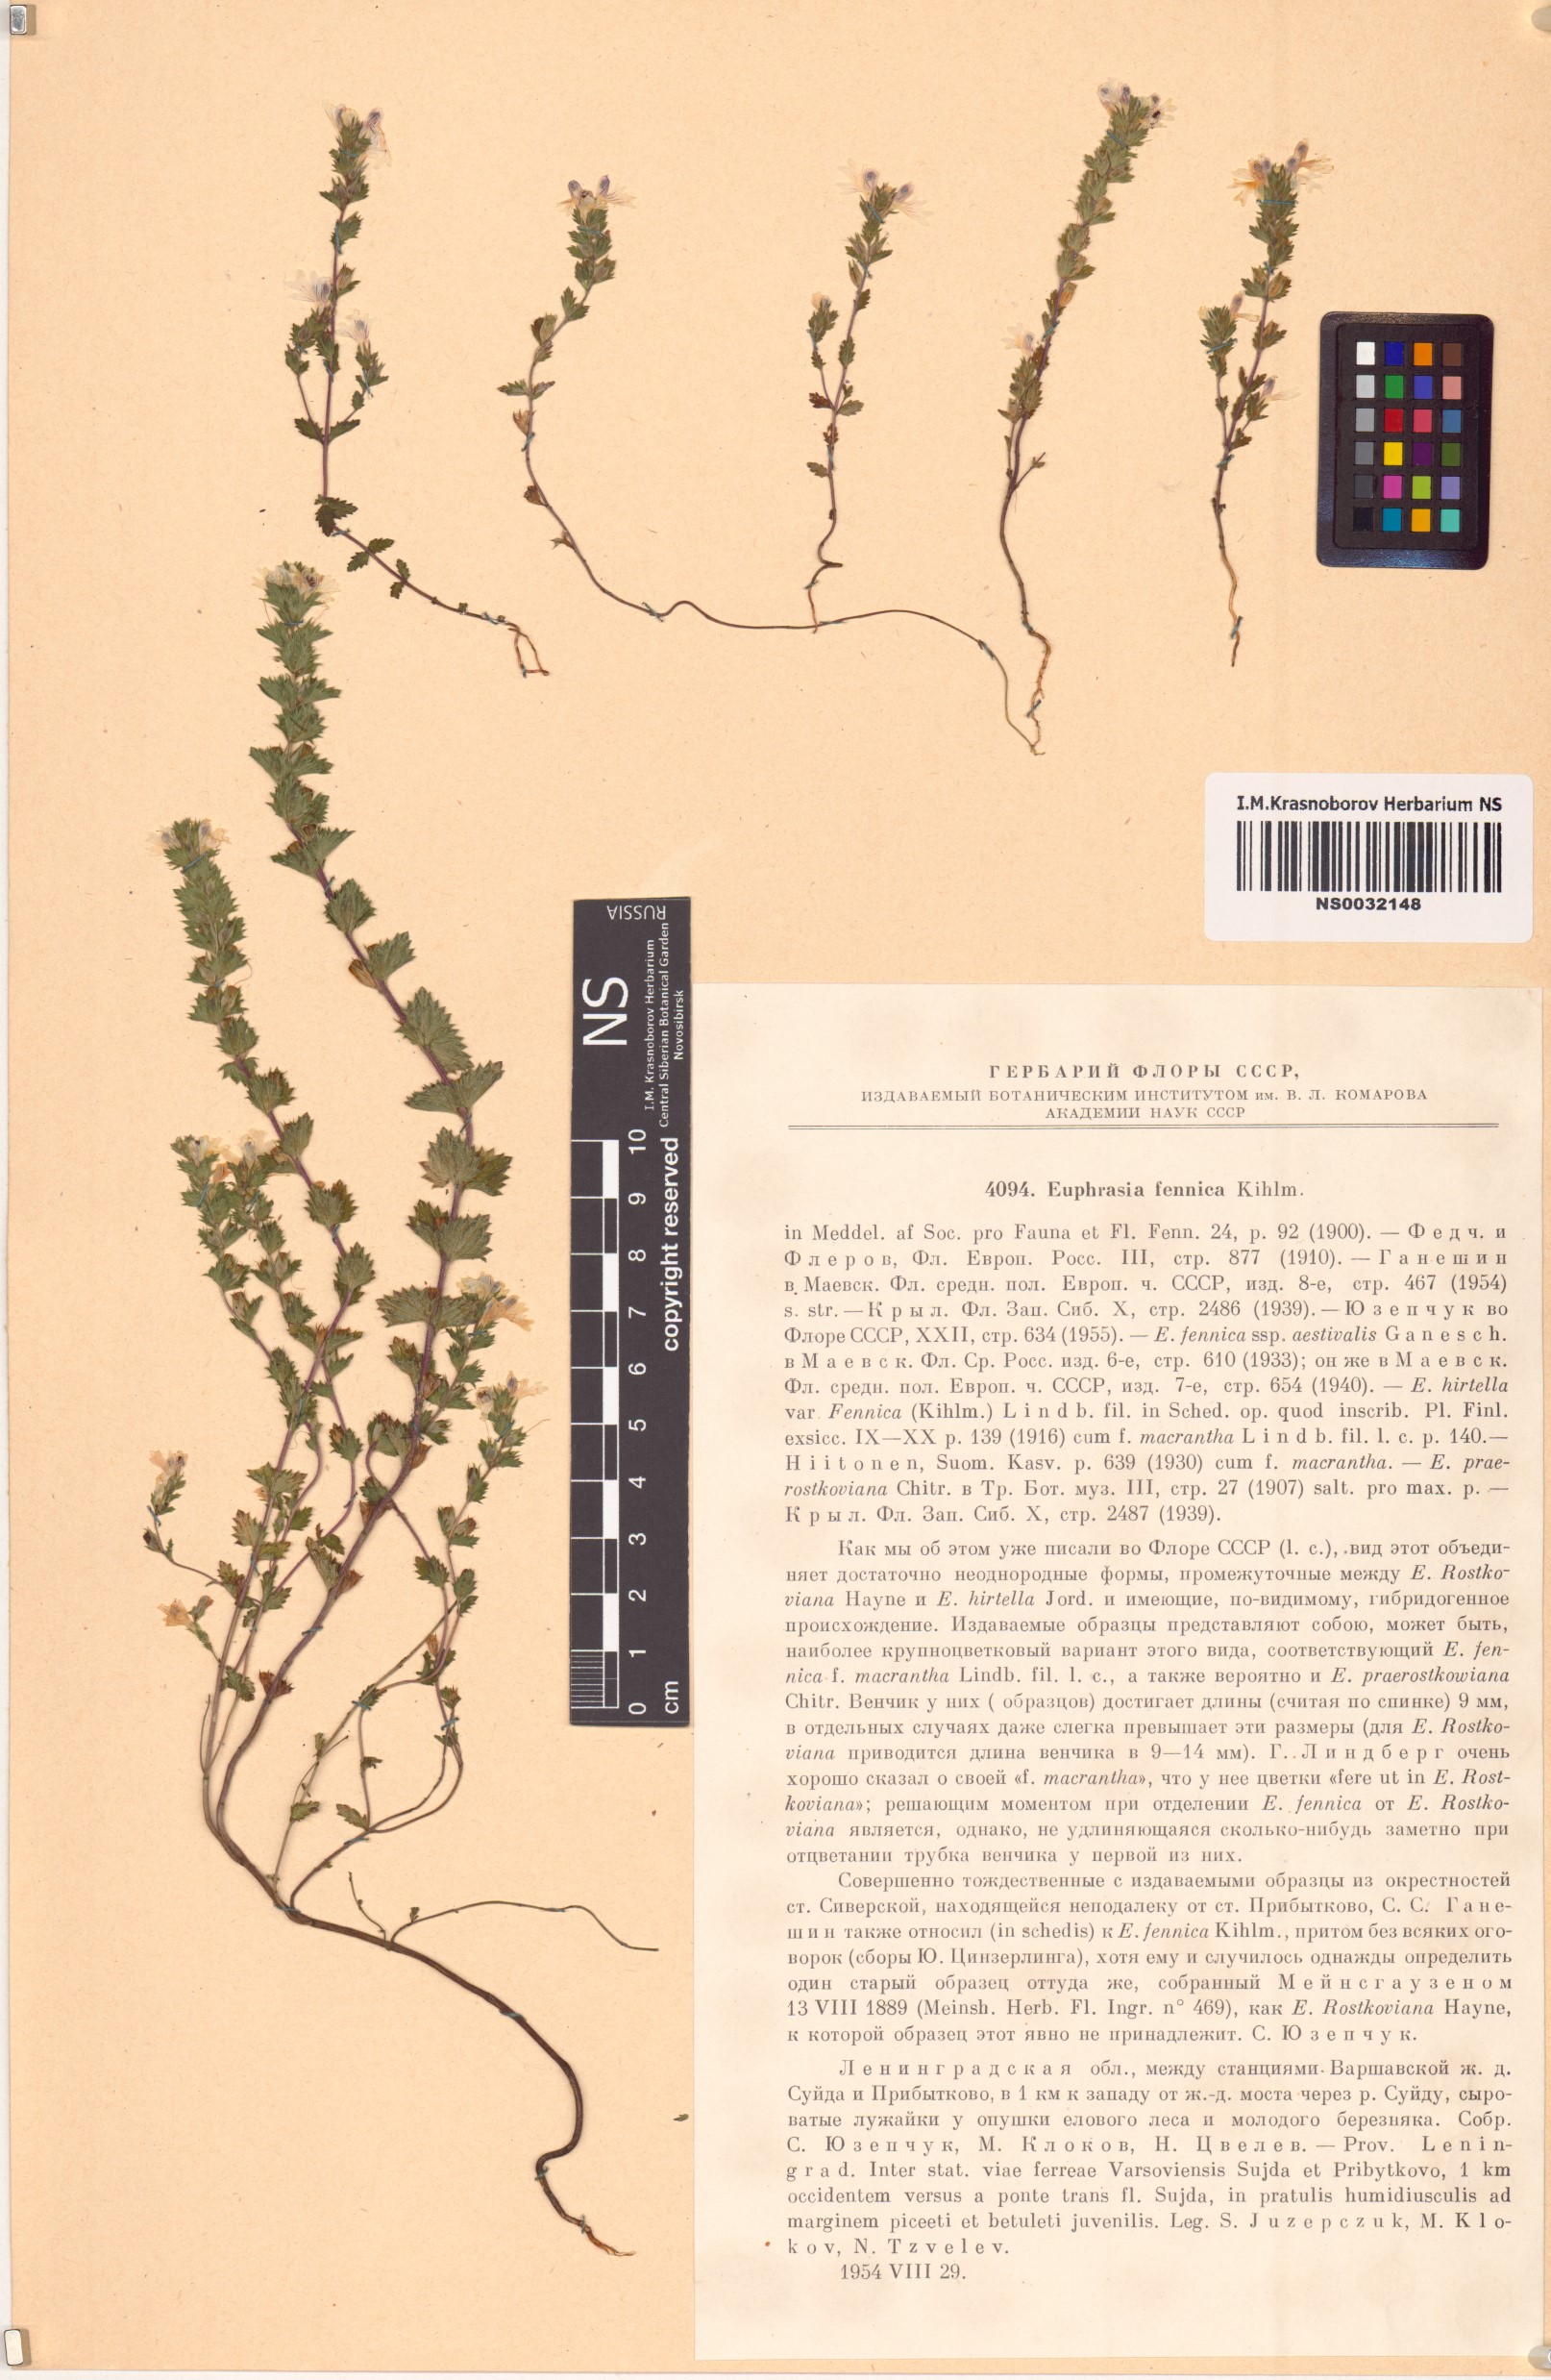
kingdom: Plantae
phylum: Tracheophyta
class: Magnoliopsida
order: Lamiales
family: Orobanchaceae
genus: Euphrasia
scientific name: Euphrasia officinalis
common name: Eyebright
